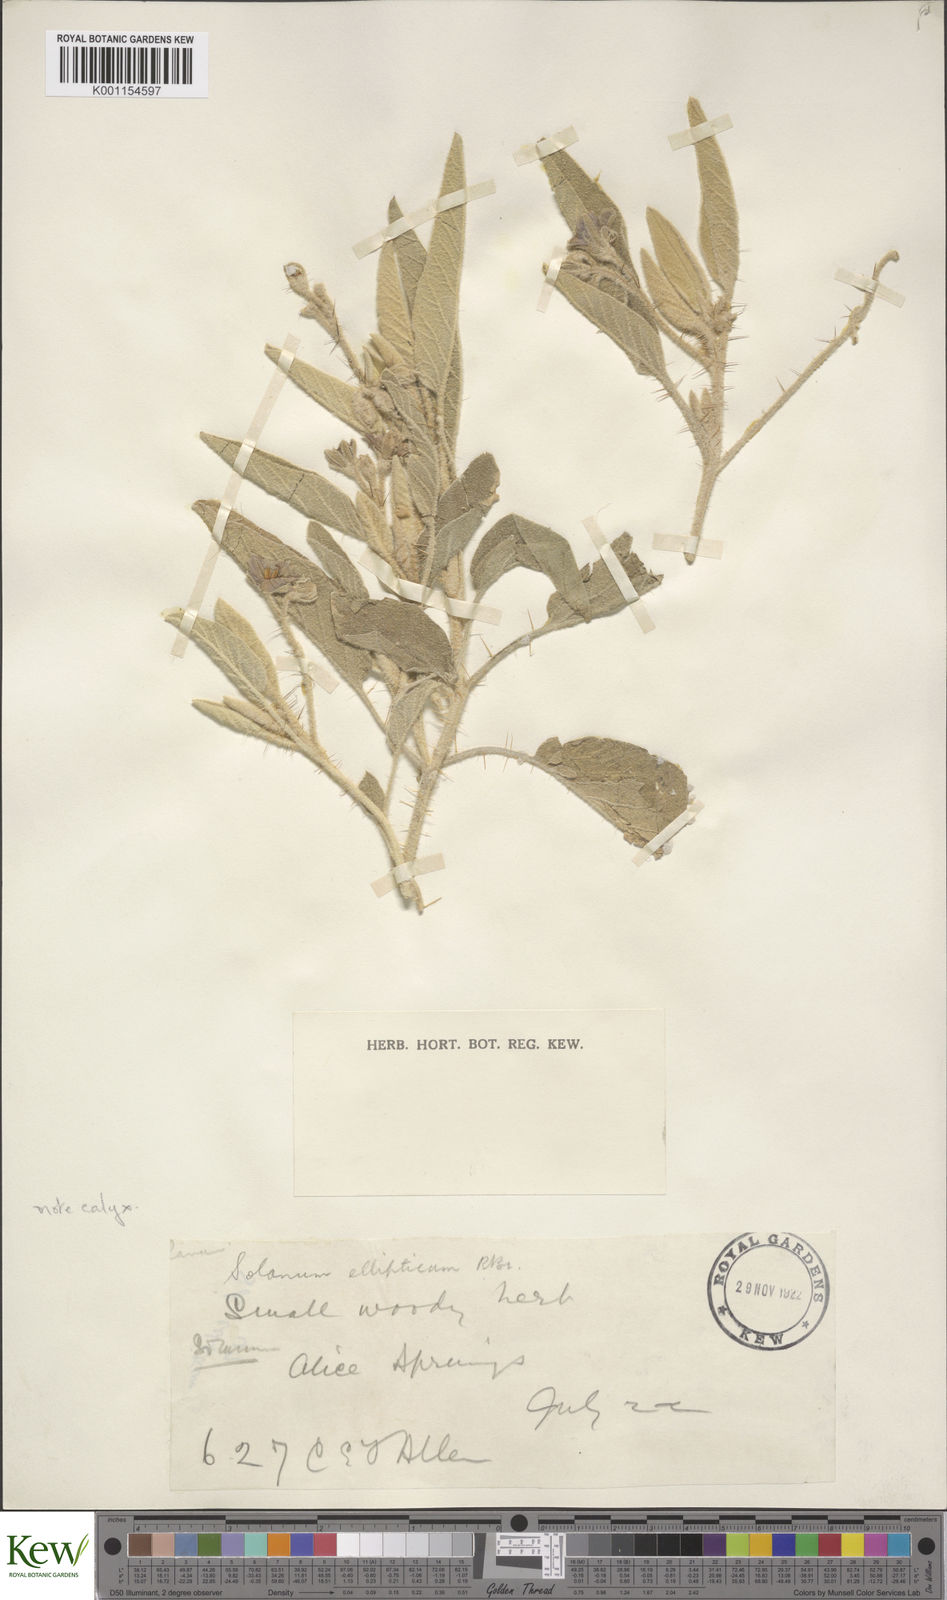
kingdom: Plantae
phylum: Tracheophyta
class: Magnoliopsida
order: Solanales
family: Solanaceae
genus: Solanum
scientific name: Solanum ellipticum
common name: Potato-bush
